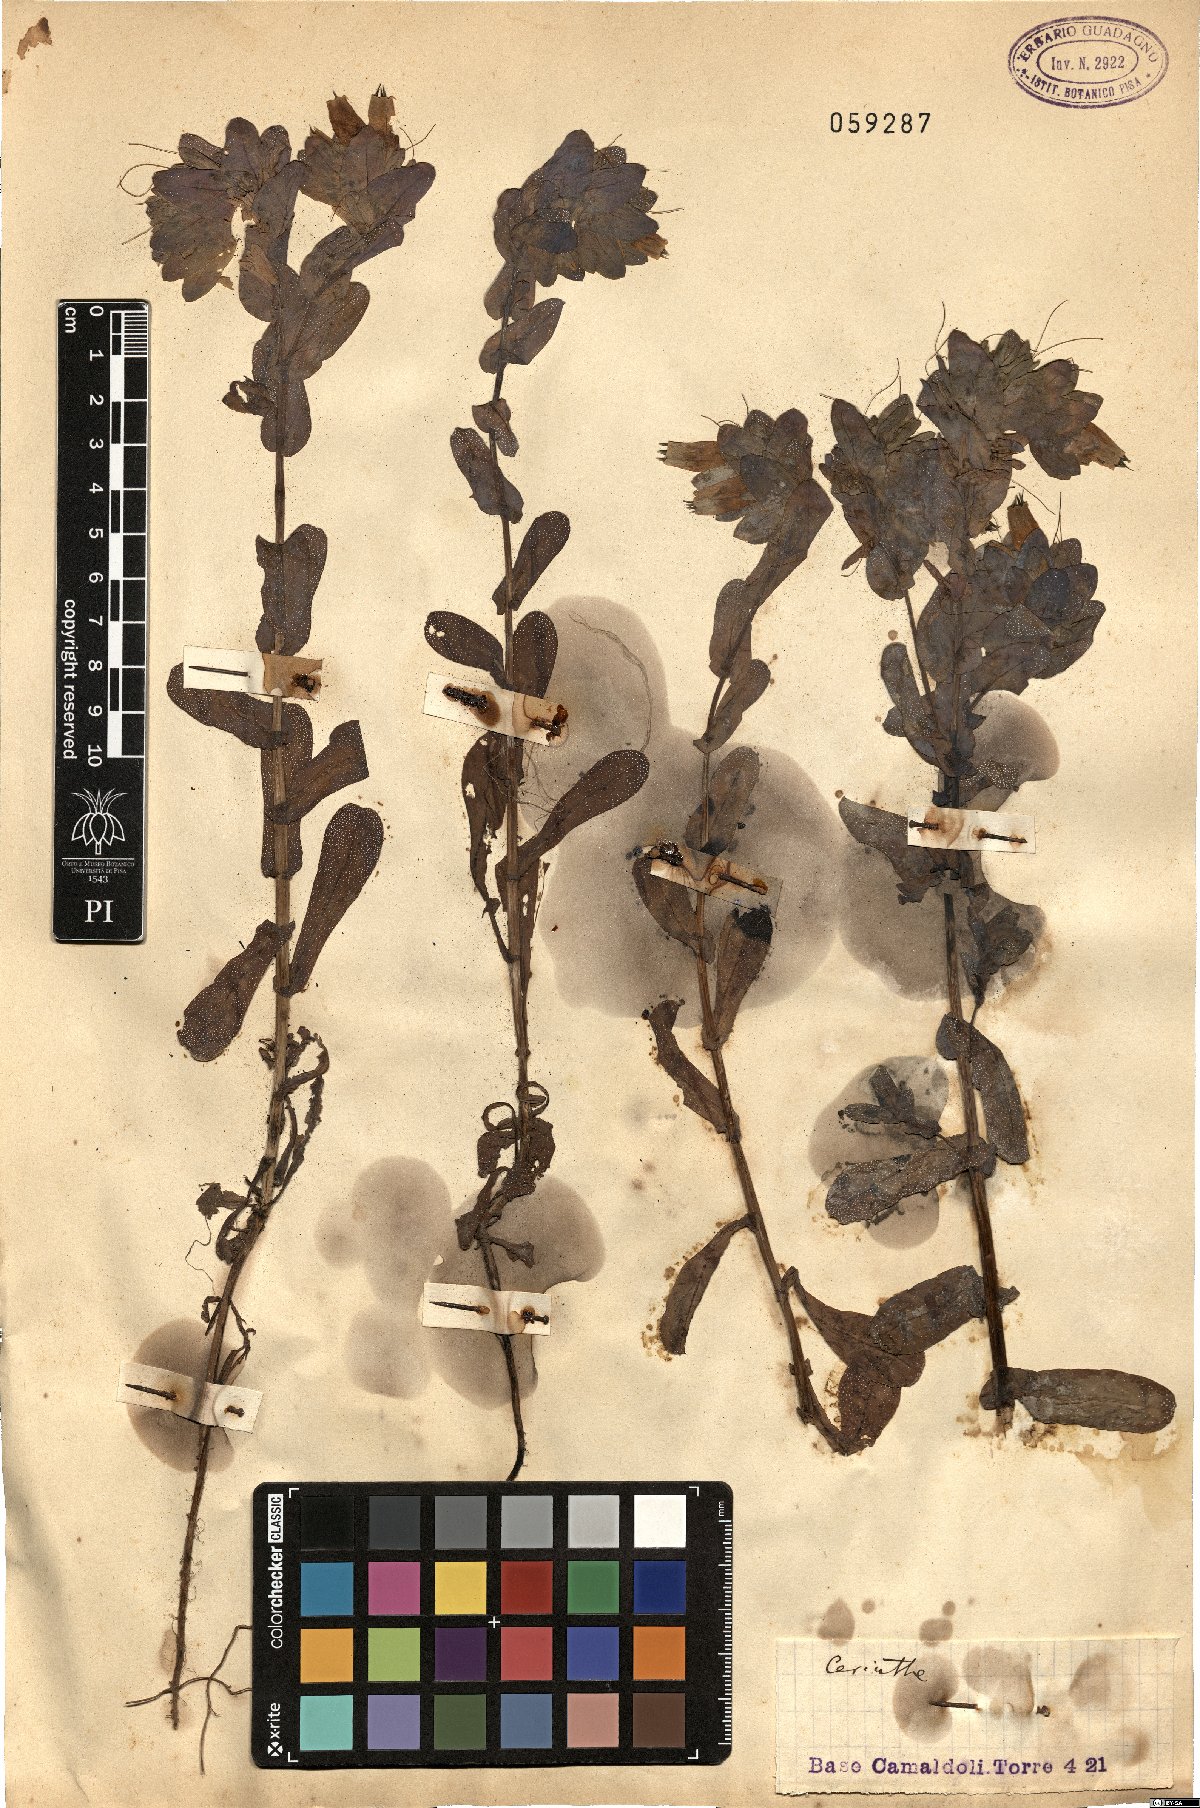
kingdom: Plantae
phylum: Tracheophyta
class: Magnoliopsida
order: Boraginales
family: Boraginaceae
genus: Cerinthe
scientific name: Cerinthe
